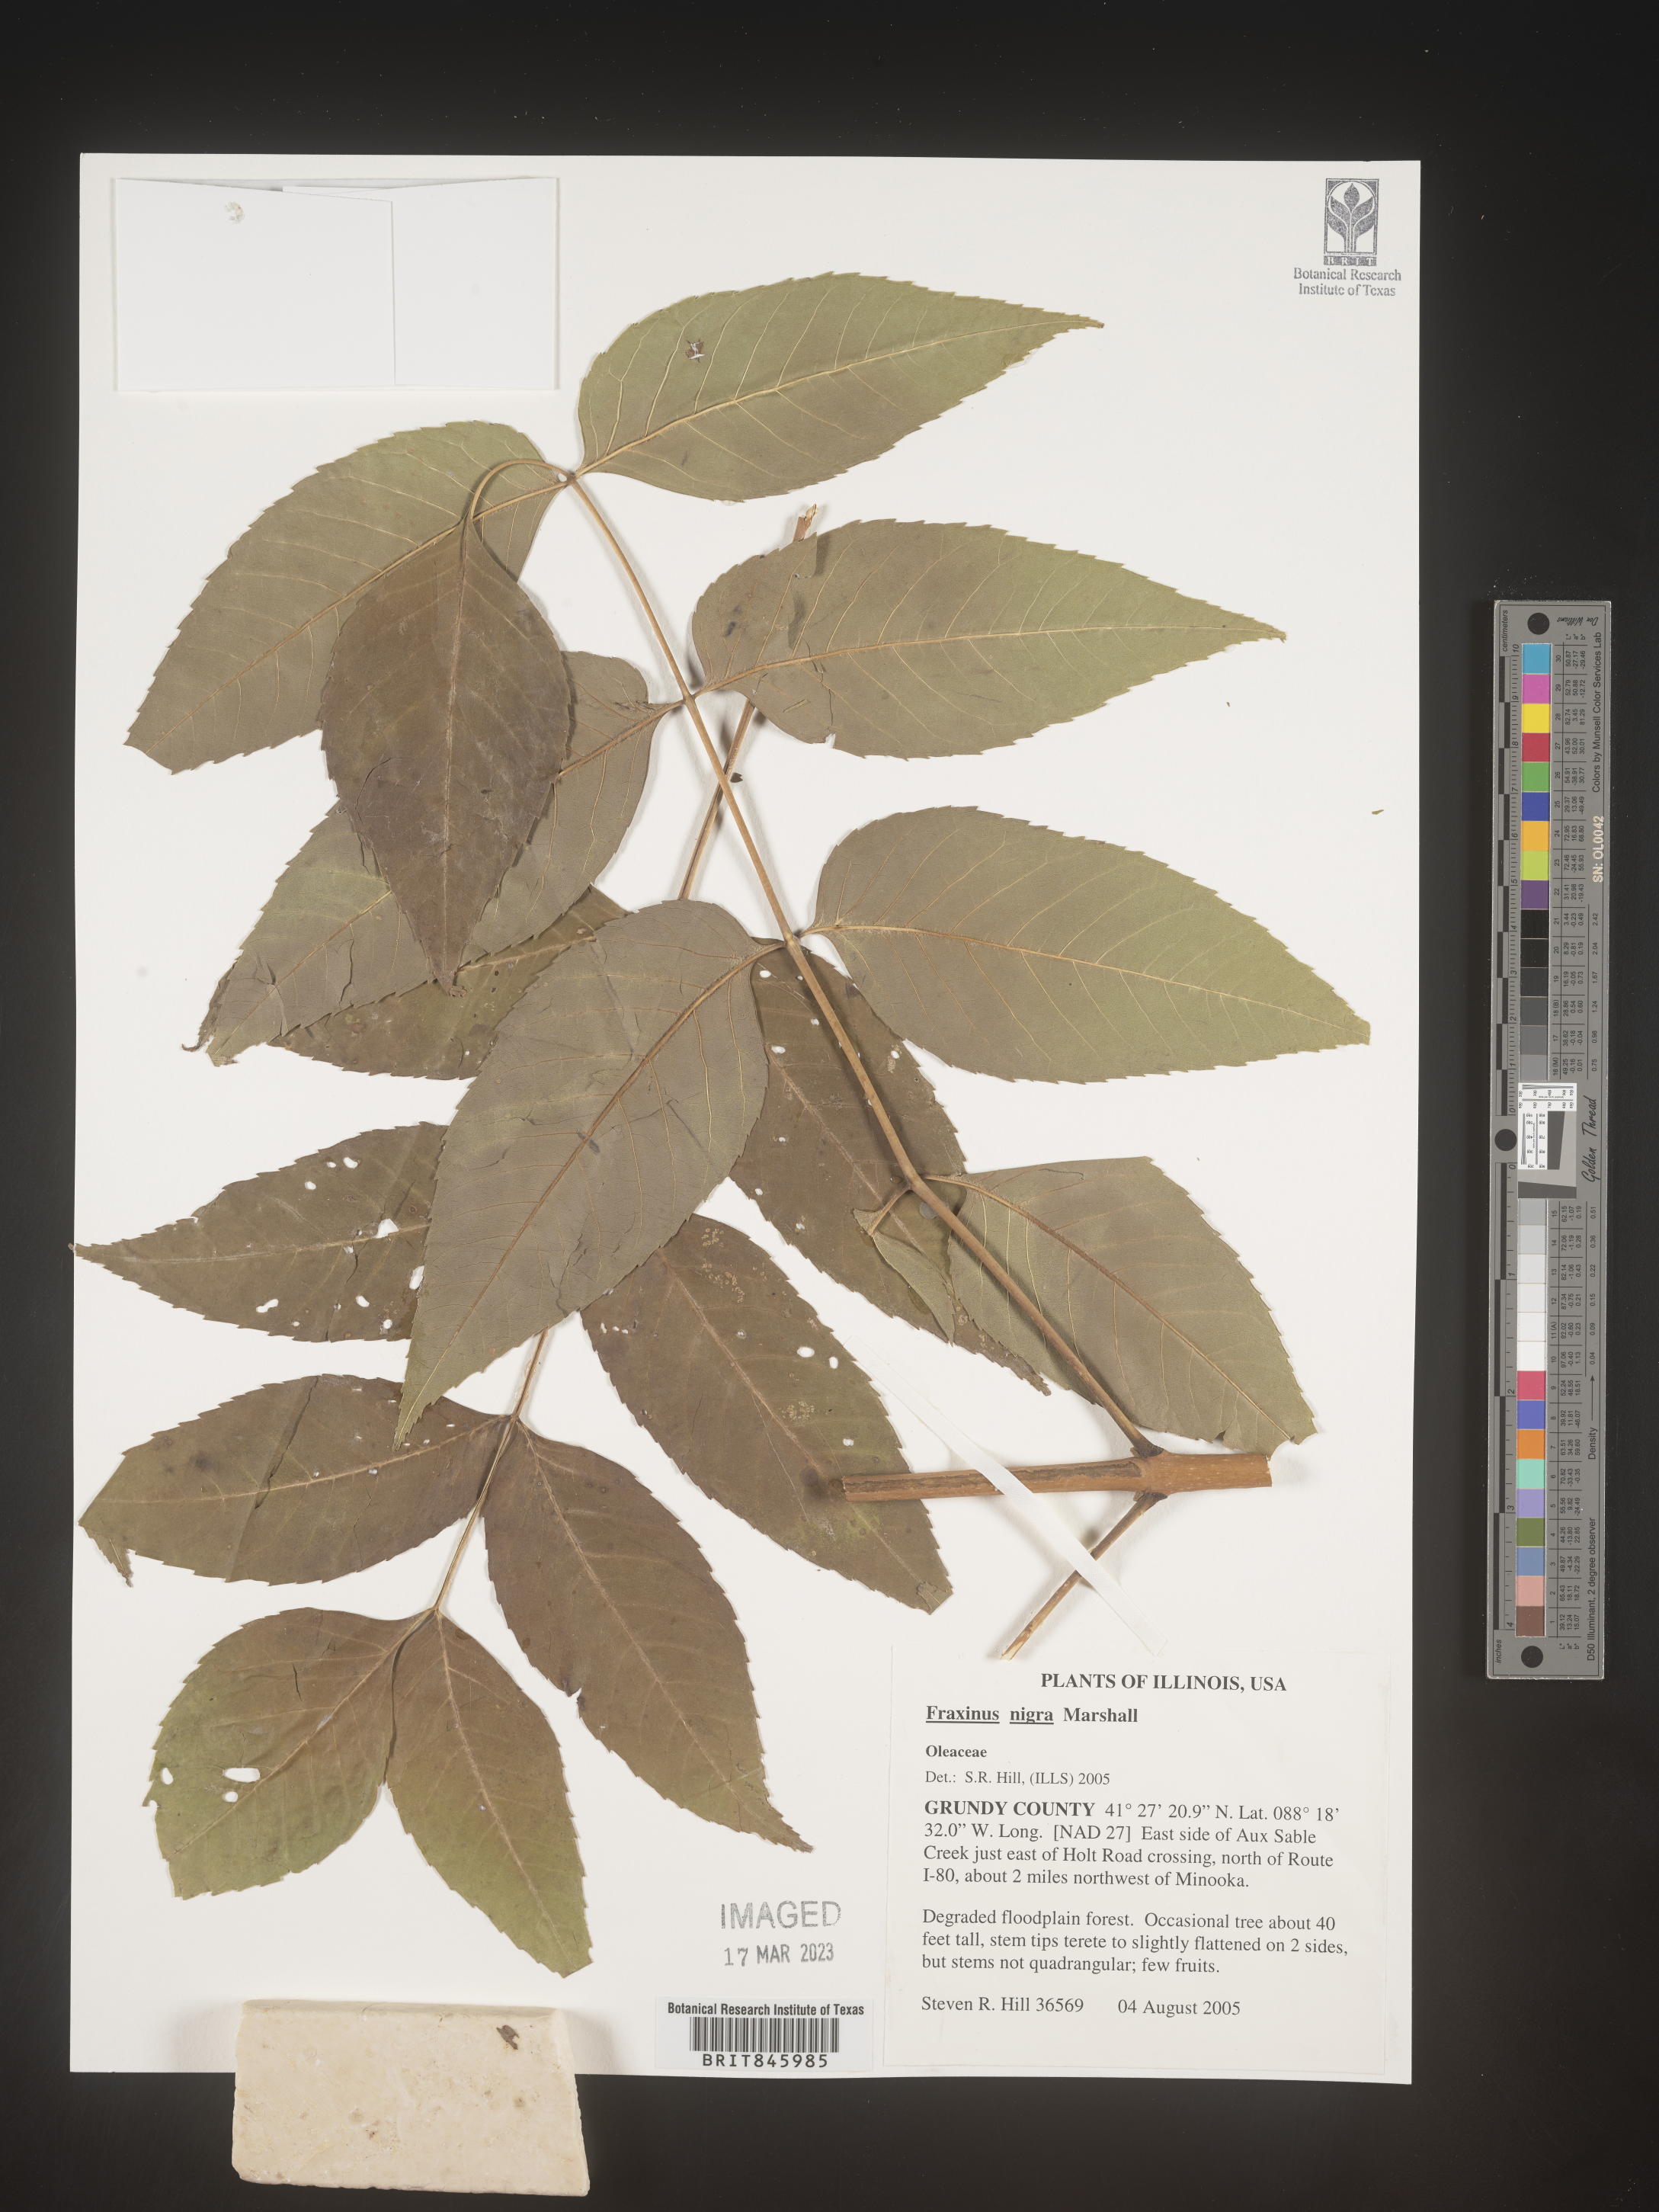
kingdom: Plantae
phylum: Tracheophyta
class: Magnoliopsida
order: Lamiales
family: Oleaceae
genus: Fraxinus
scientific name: Fraxinus nigra
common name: Black ash
